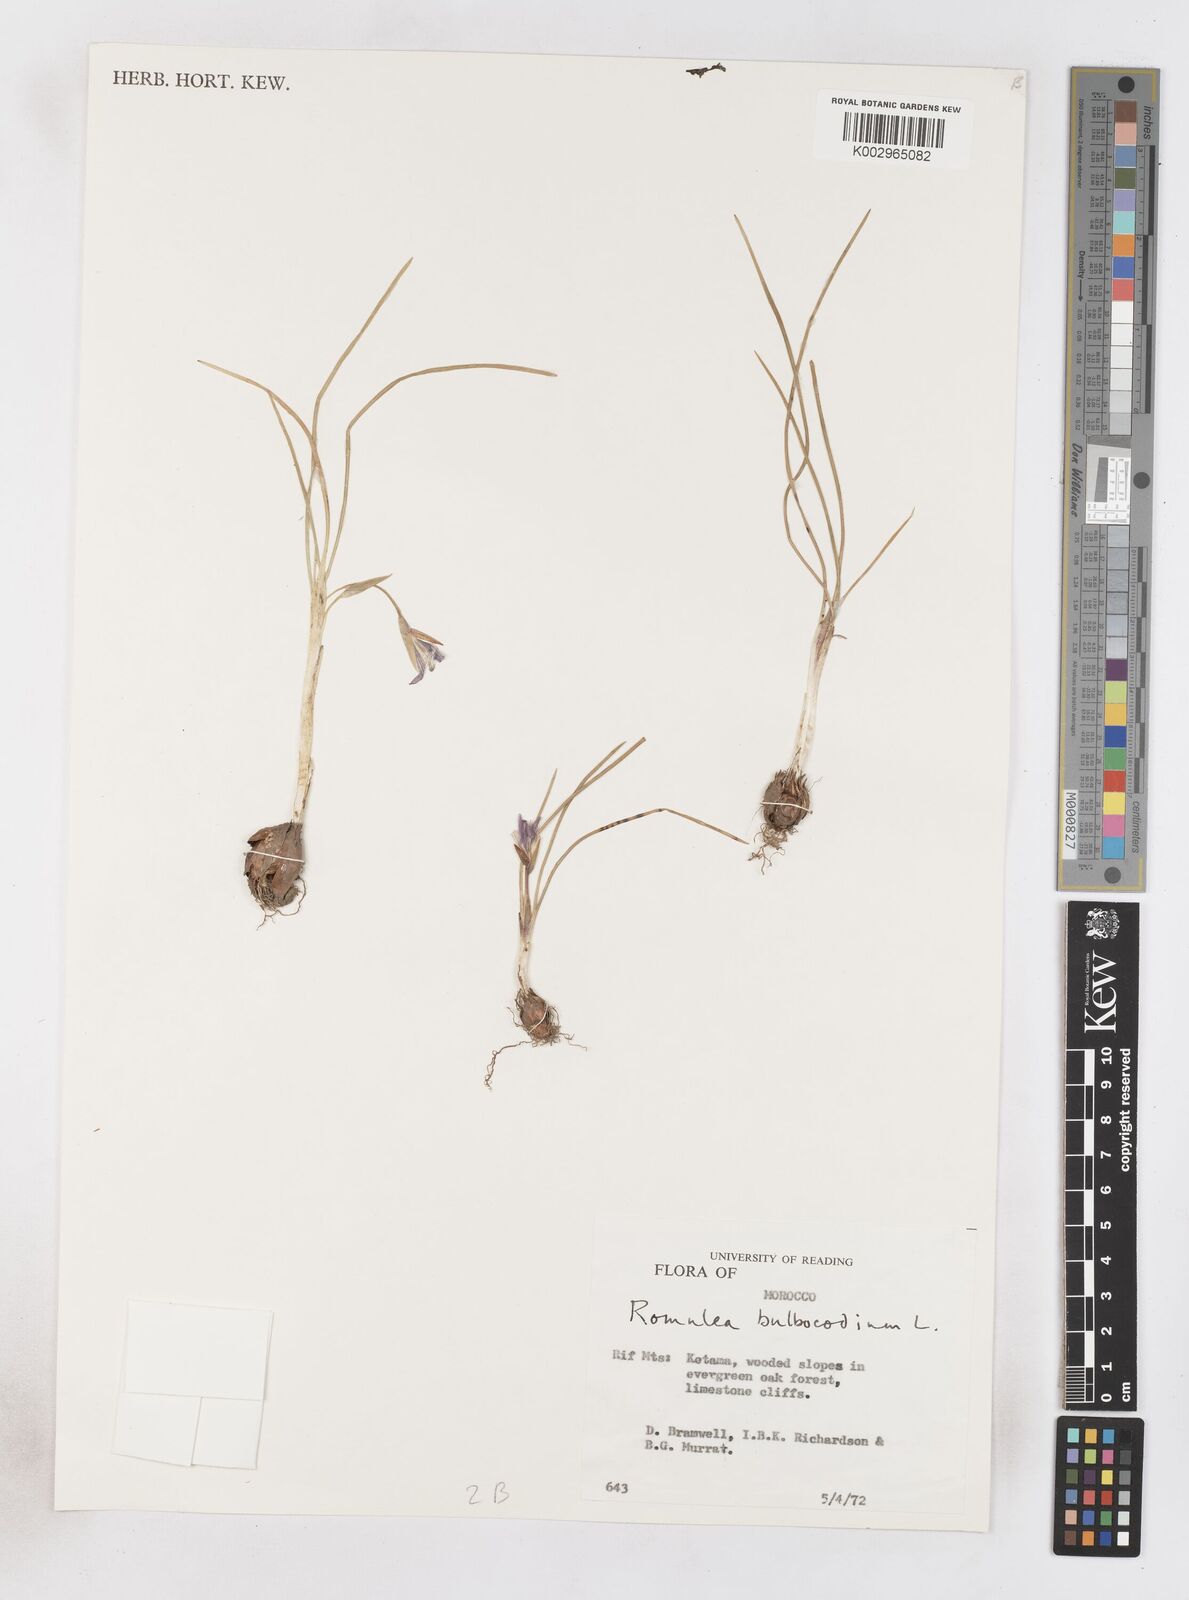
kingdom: Plantae
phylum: Tracheophyta
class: Liliopsida
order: Asparagales
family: Iridaceae
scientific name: Iridaceae
